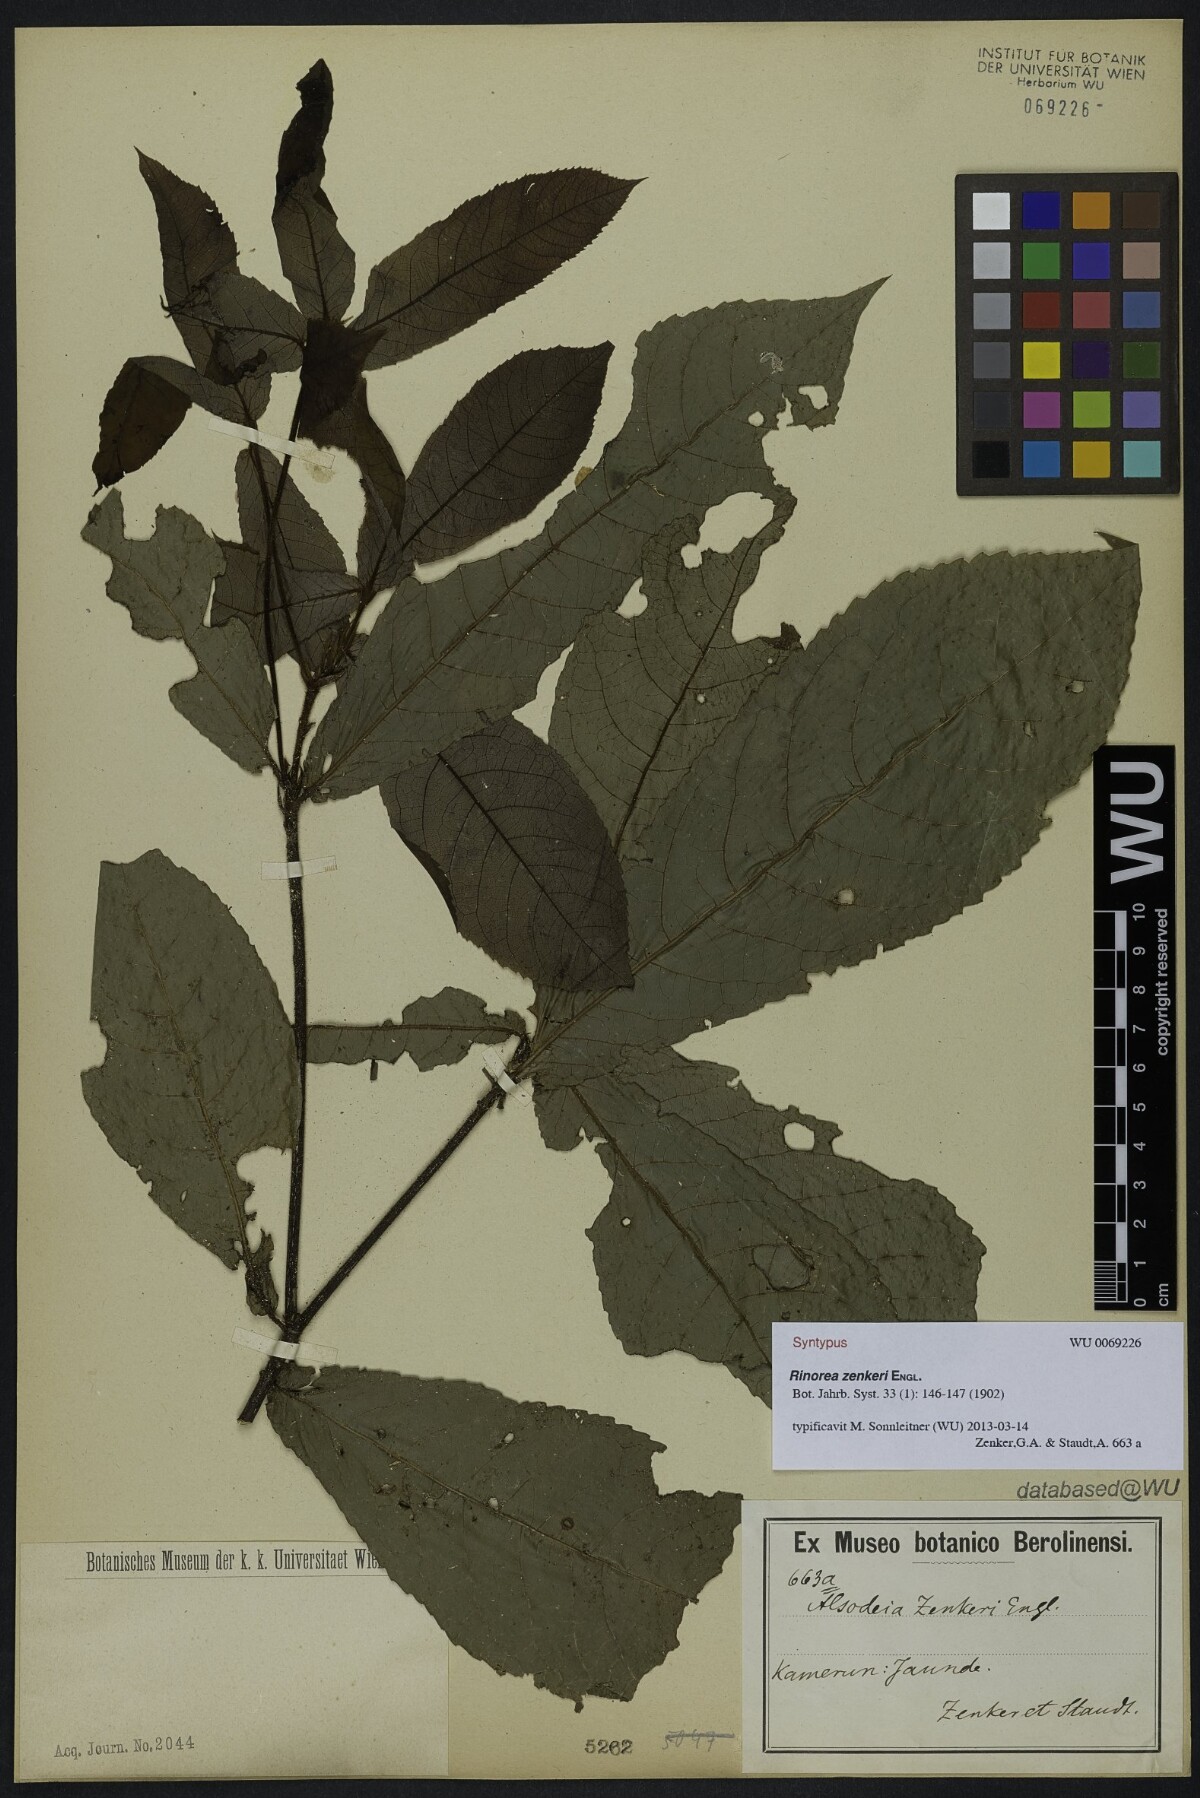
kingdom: Plantae
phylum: Tracheophyta
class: Magnoliopsida
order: Malpighiales
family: Violaceae
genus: Rinorea
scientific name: Rinorea zenkeri
